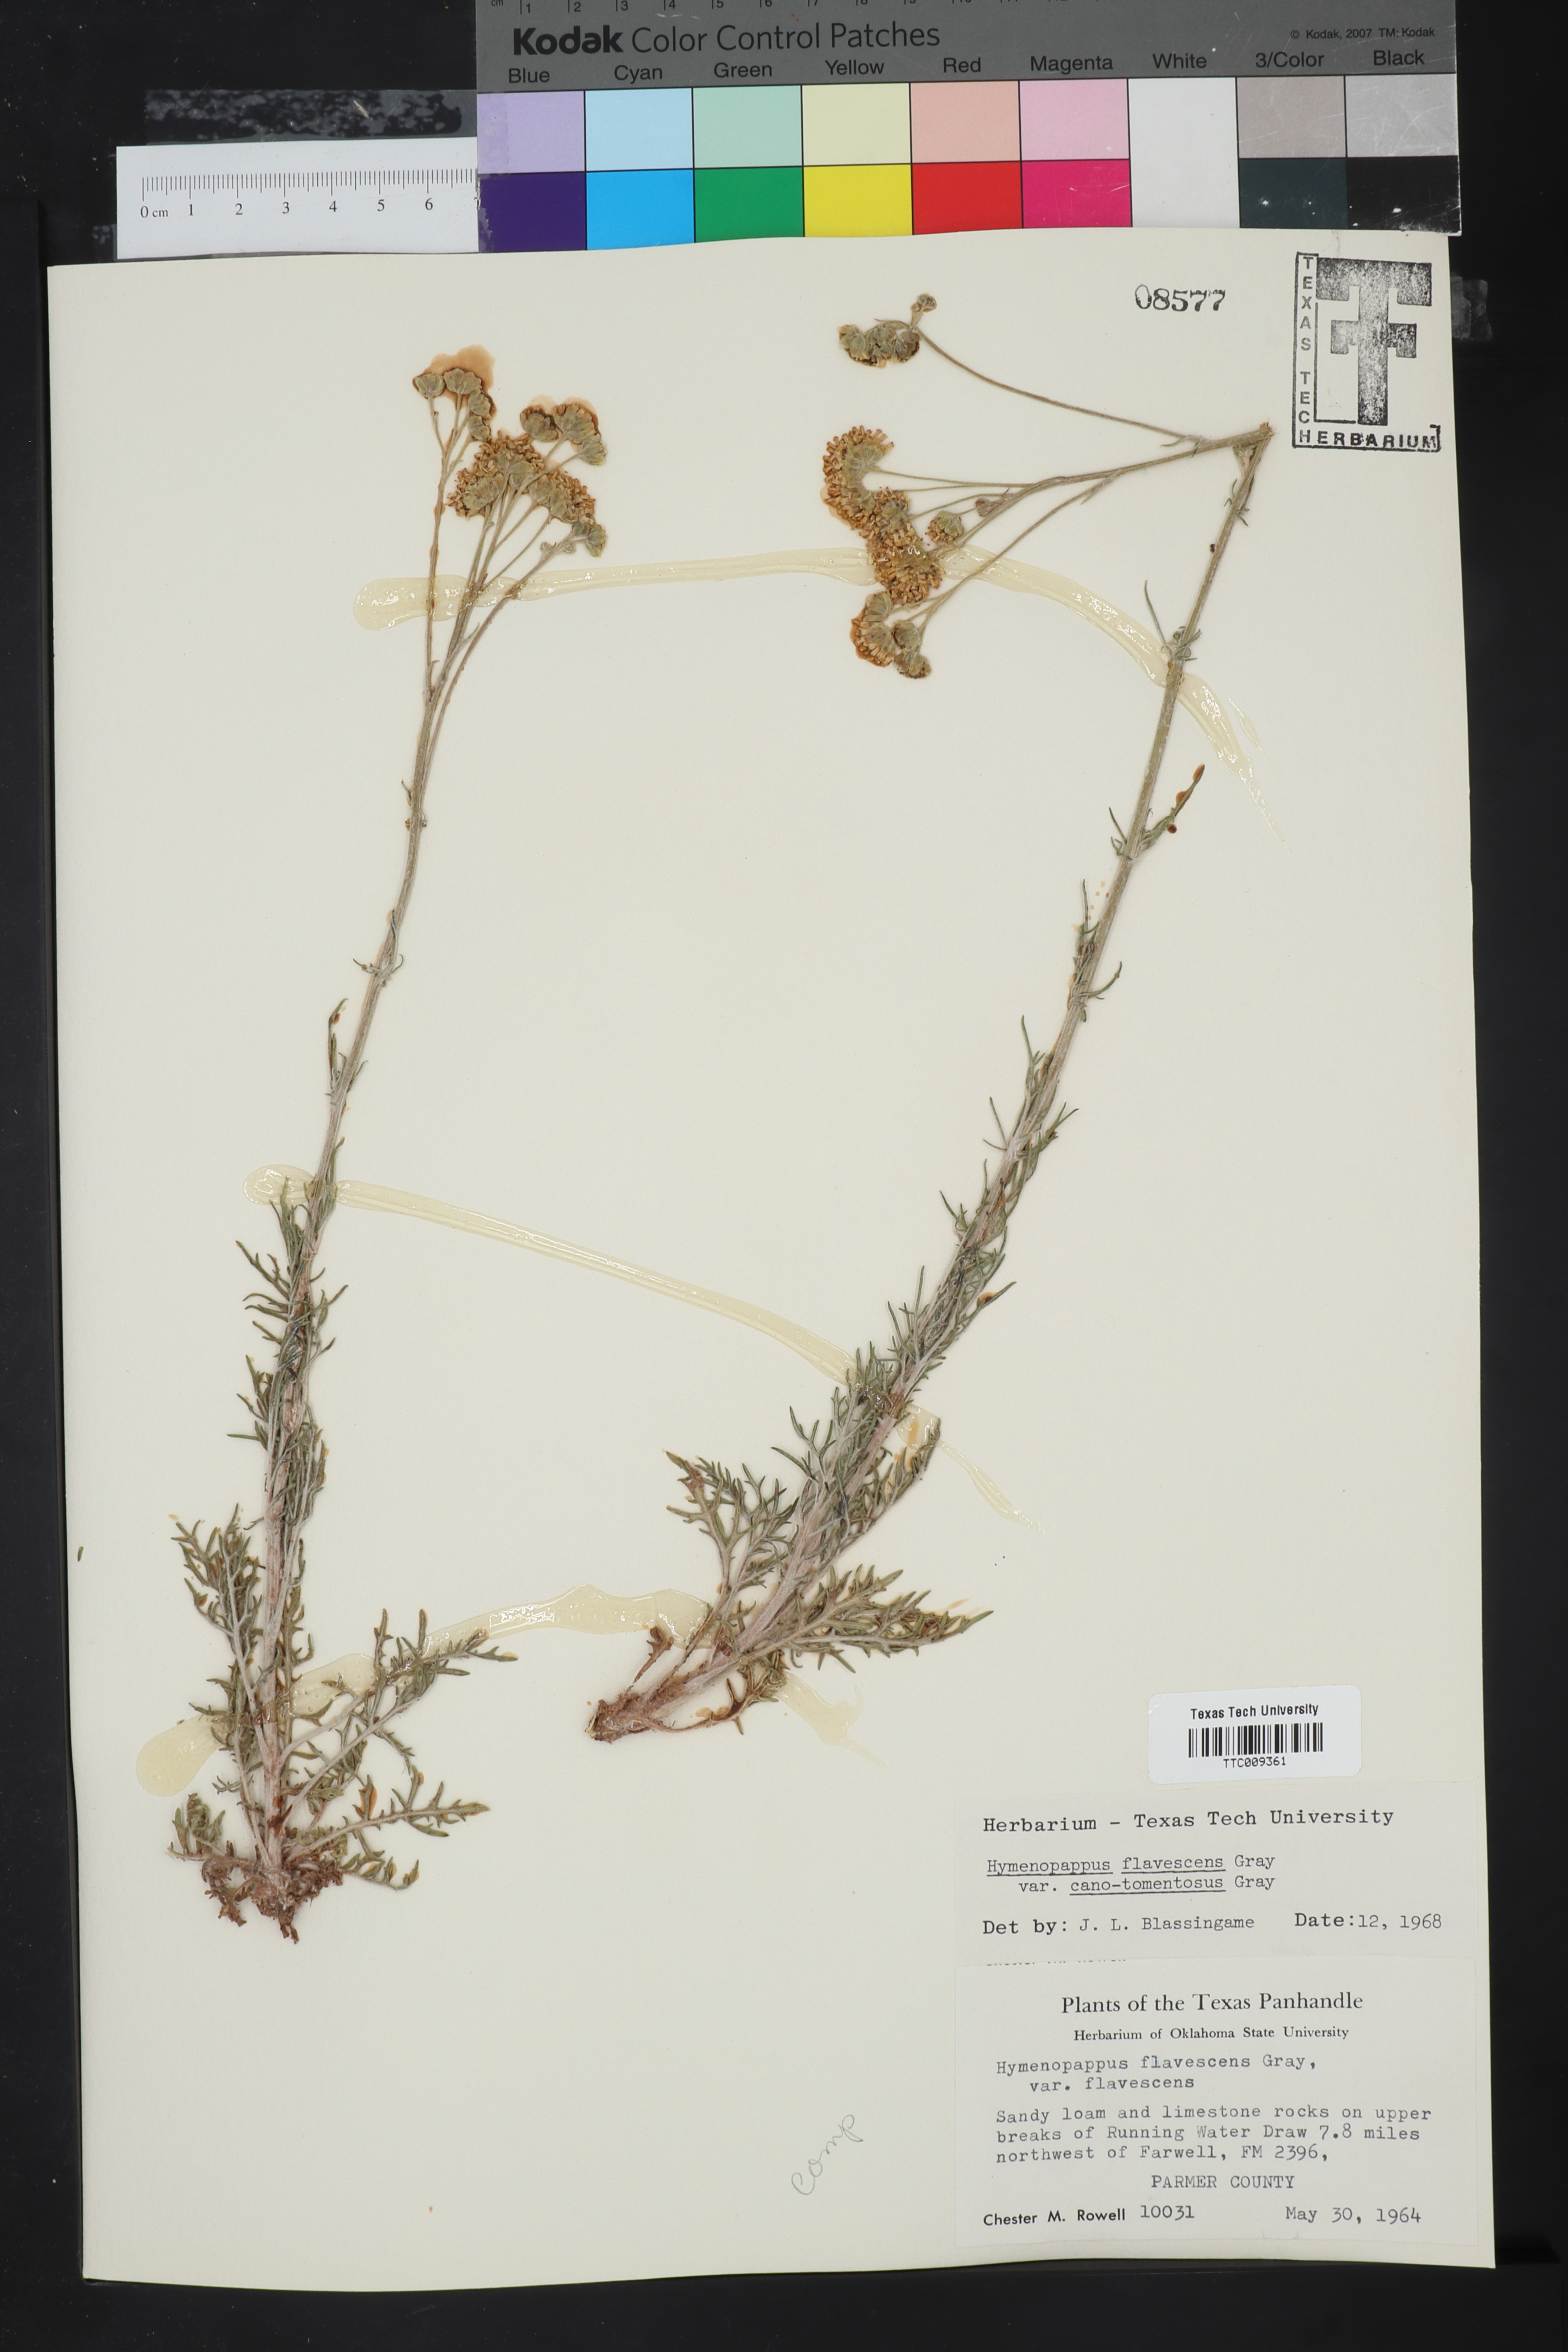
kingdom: Plantae
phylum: Tracheophyta
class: Magnoliopsida
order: Asterales
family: Asteraceae
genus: Hymenopappus
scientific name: Hymenopappus flavescens
